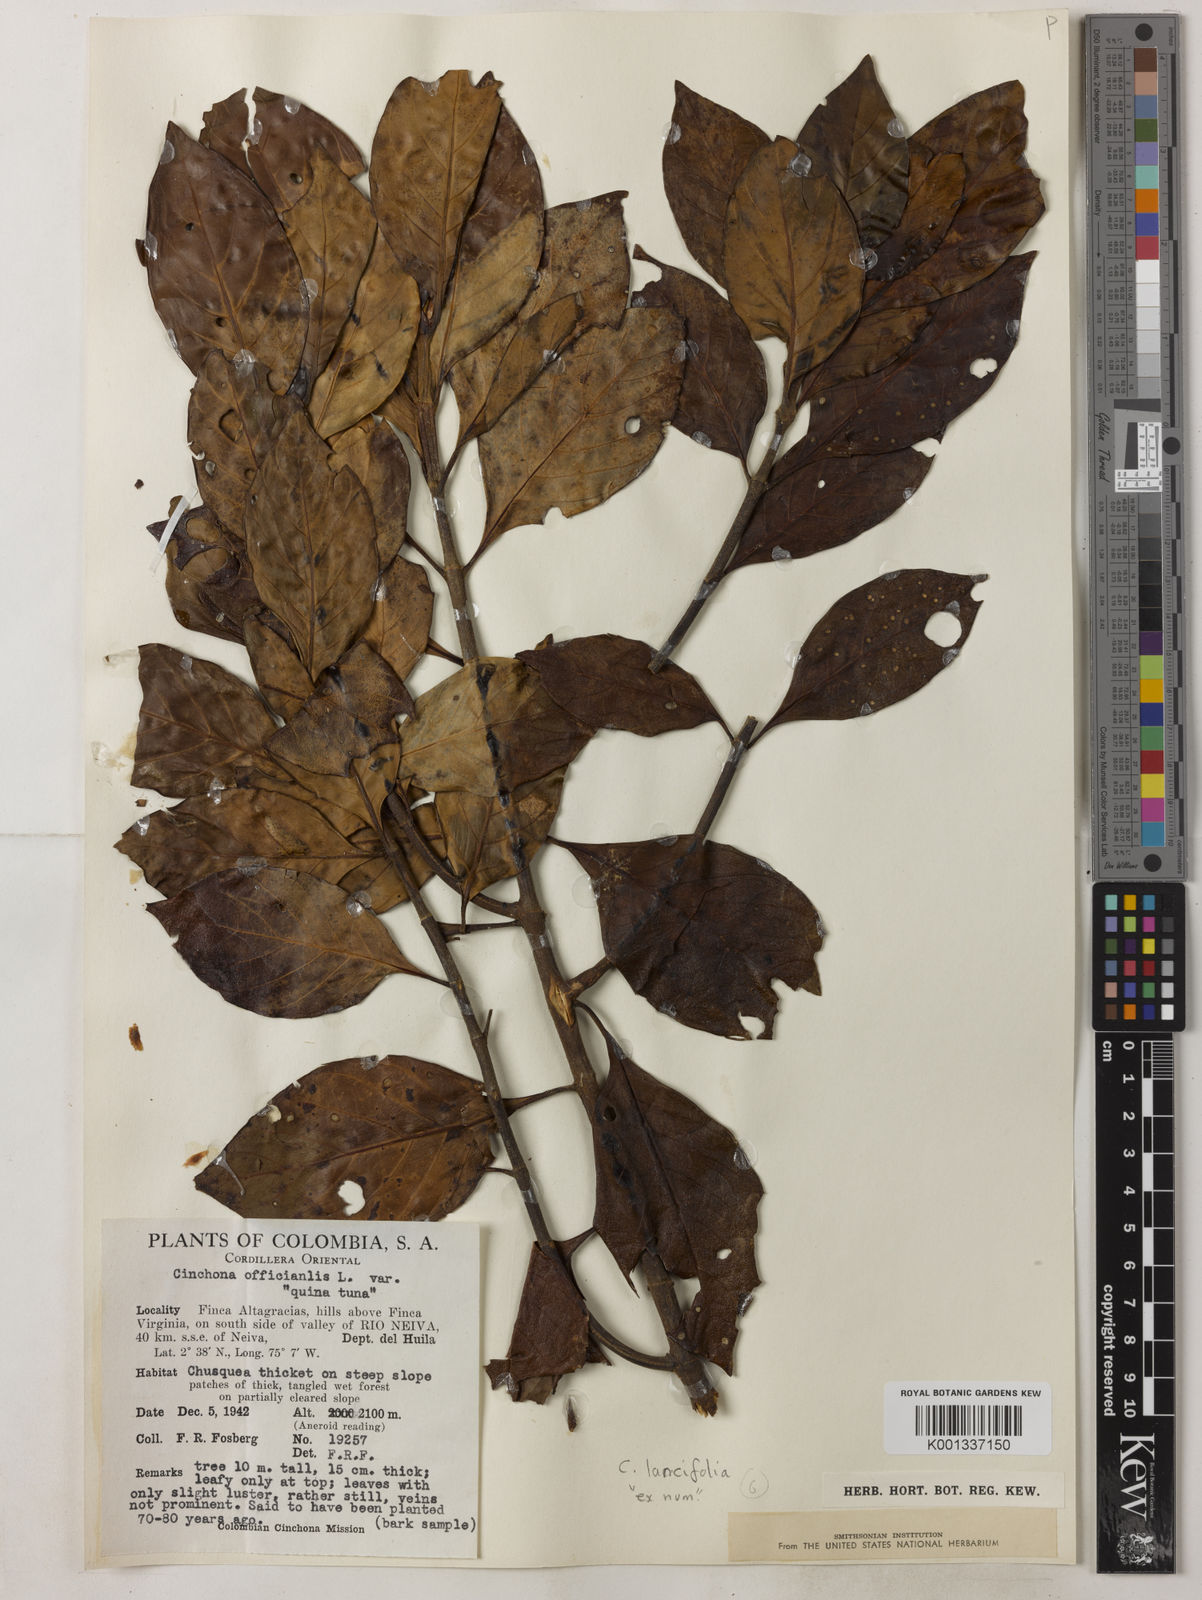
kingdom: Plantae
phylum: Tracheophyta
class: Magnoliopsida
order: Gentianales
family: Rubiaceae
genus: Cinchona
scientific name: Cinchona lancifolia
